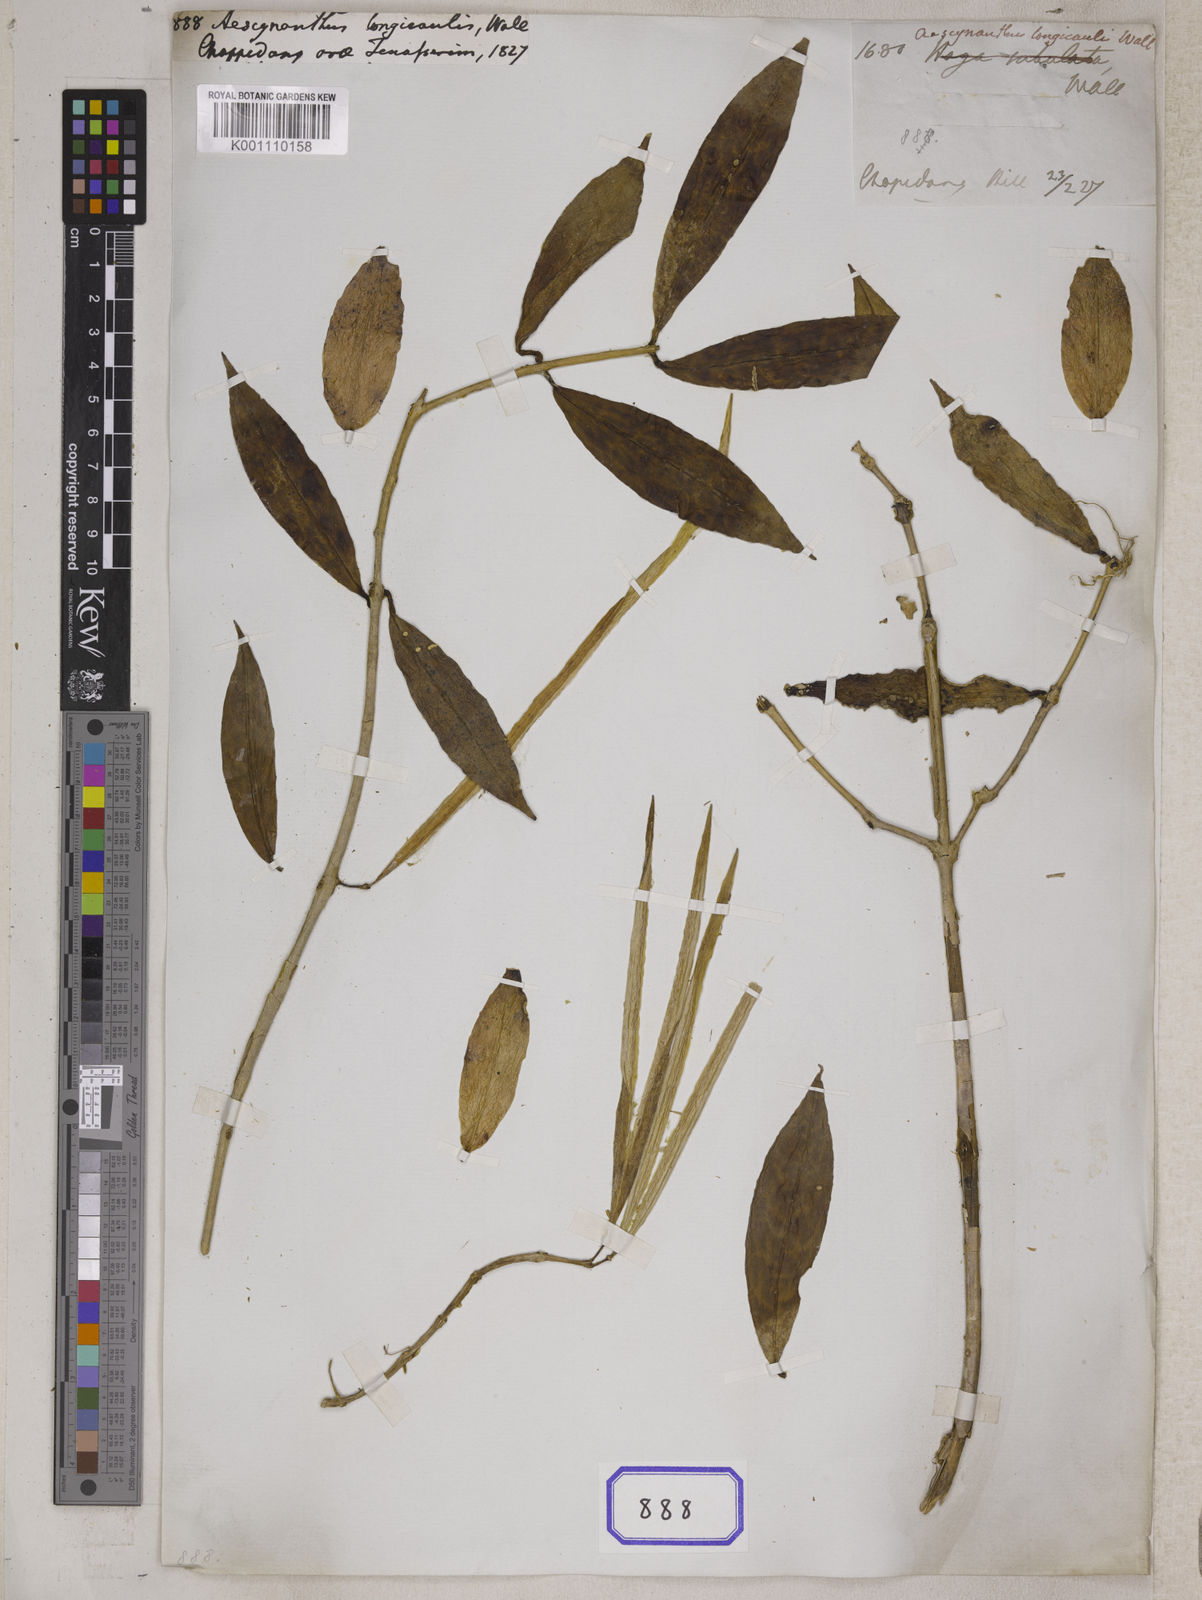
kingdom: Plantae
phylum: Tracheophyta
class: Magnoliopsida
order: Lamiales
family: Gesneriaceae
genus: Aeschynanthus
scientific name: Aeschynanthus
